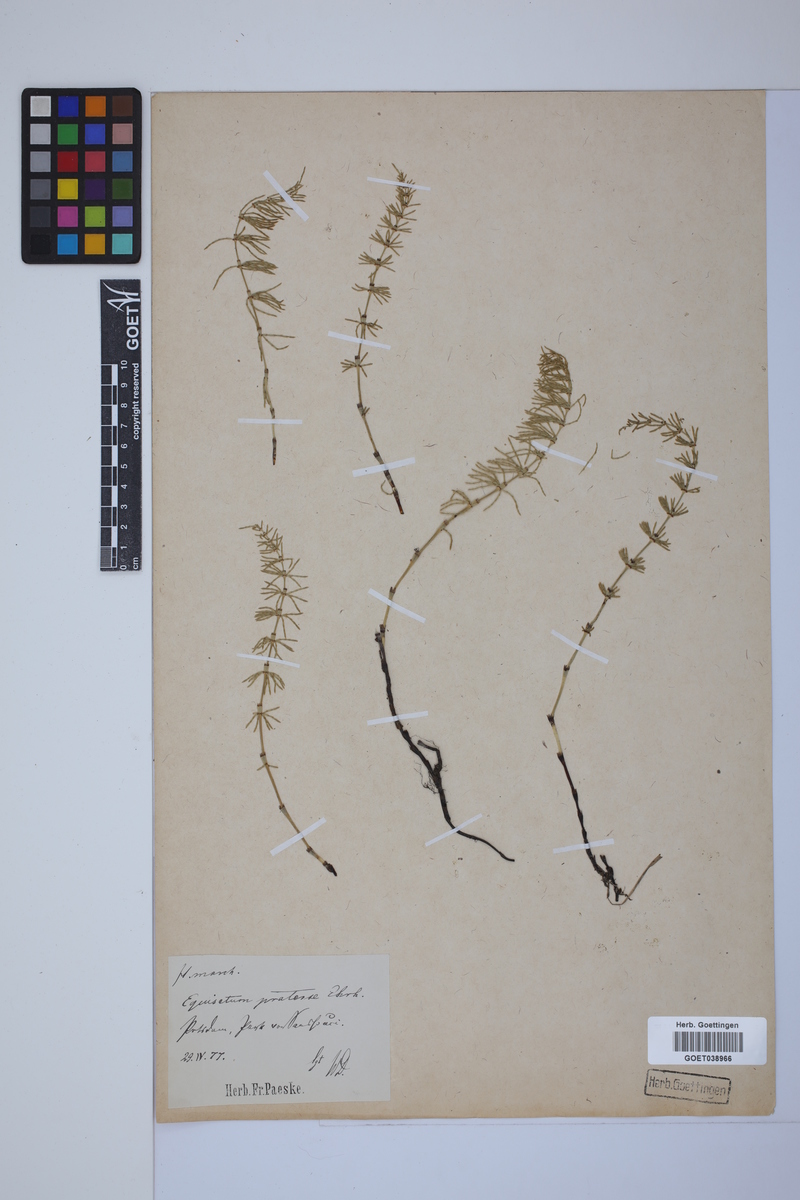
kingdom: Plantae
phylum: Tracheophyta
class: Polypodiopsida
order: Equisetales
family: Equisetaceae
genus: Equisetum
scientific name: Equisetum pratense
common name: Meadow horsetail
